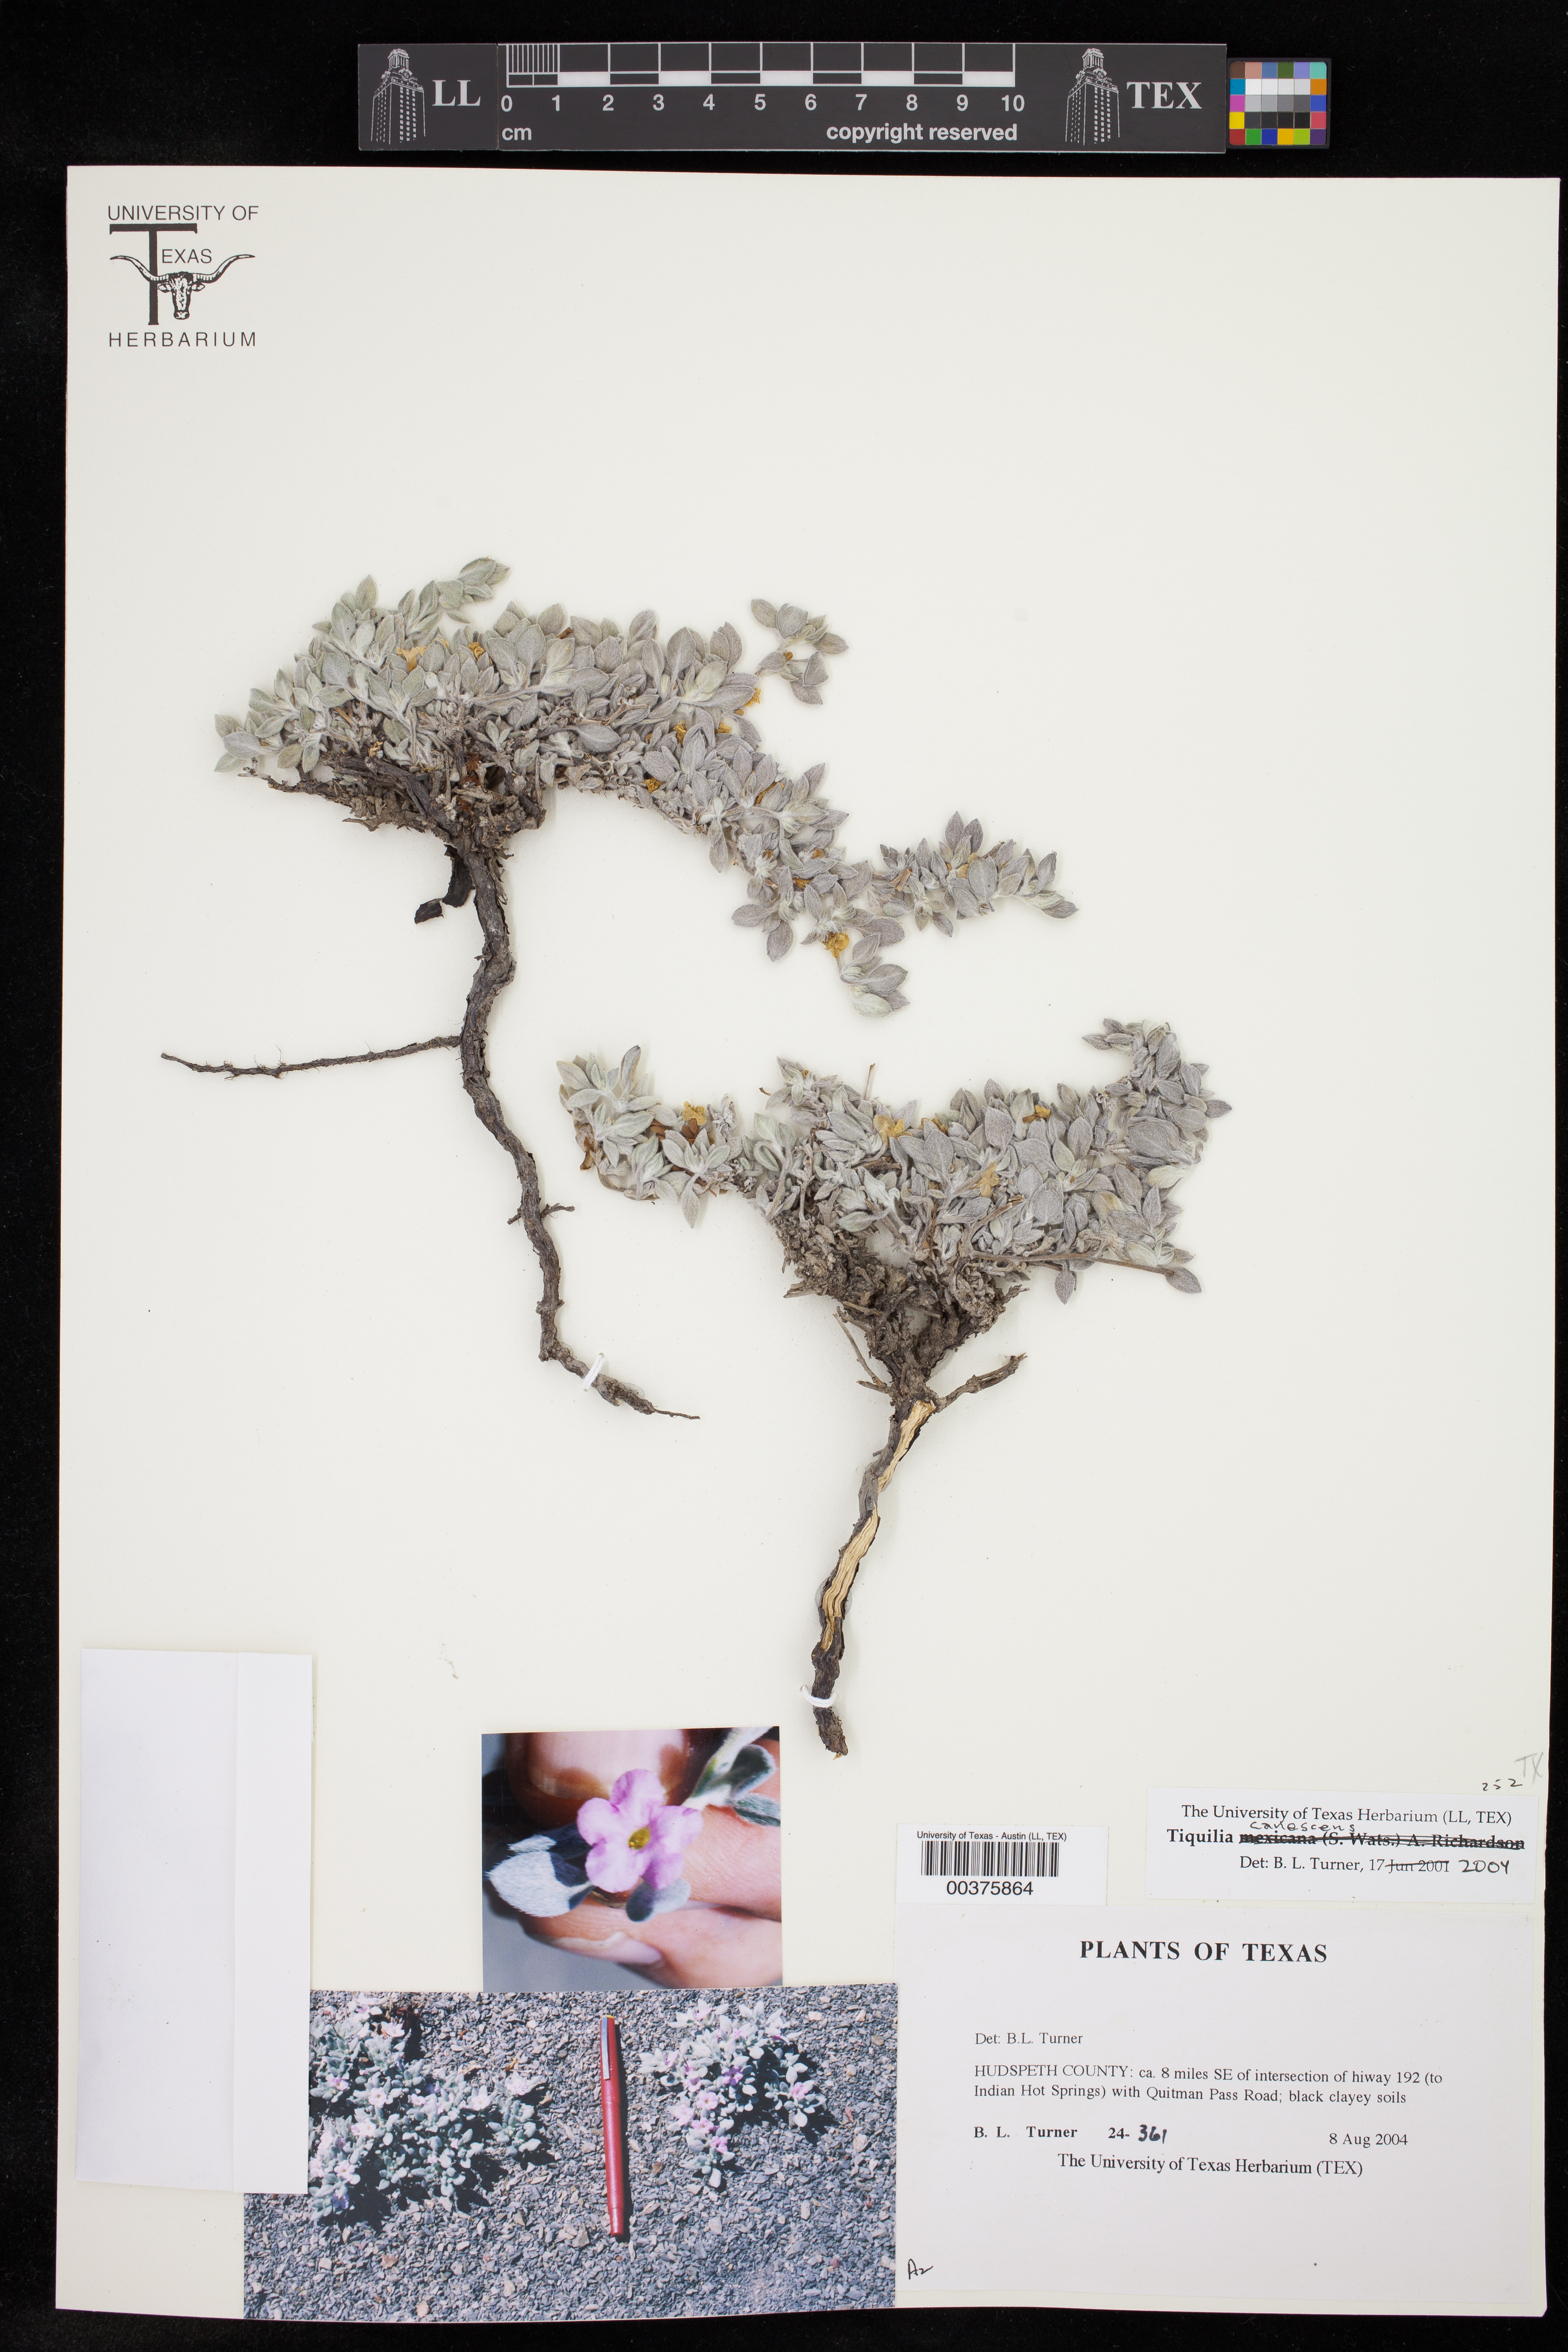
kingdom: Plantae
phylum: Tracheophyta
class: Magnoliopsida
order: Boraginales
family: Ehretiaceae
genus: Tiquilia
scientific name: Tiquilia canescens
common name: Hairy tiquilia
